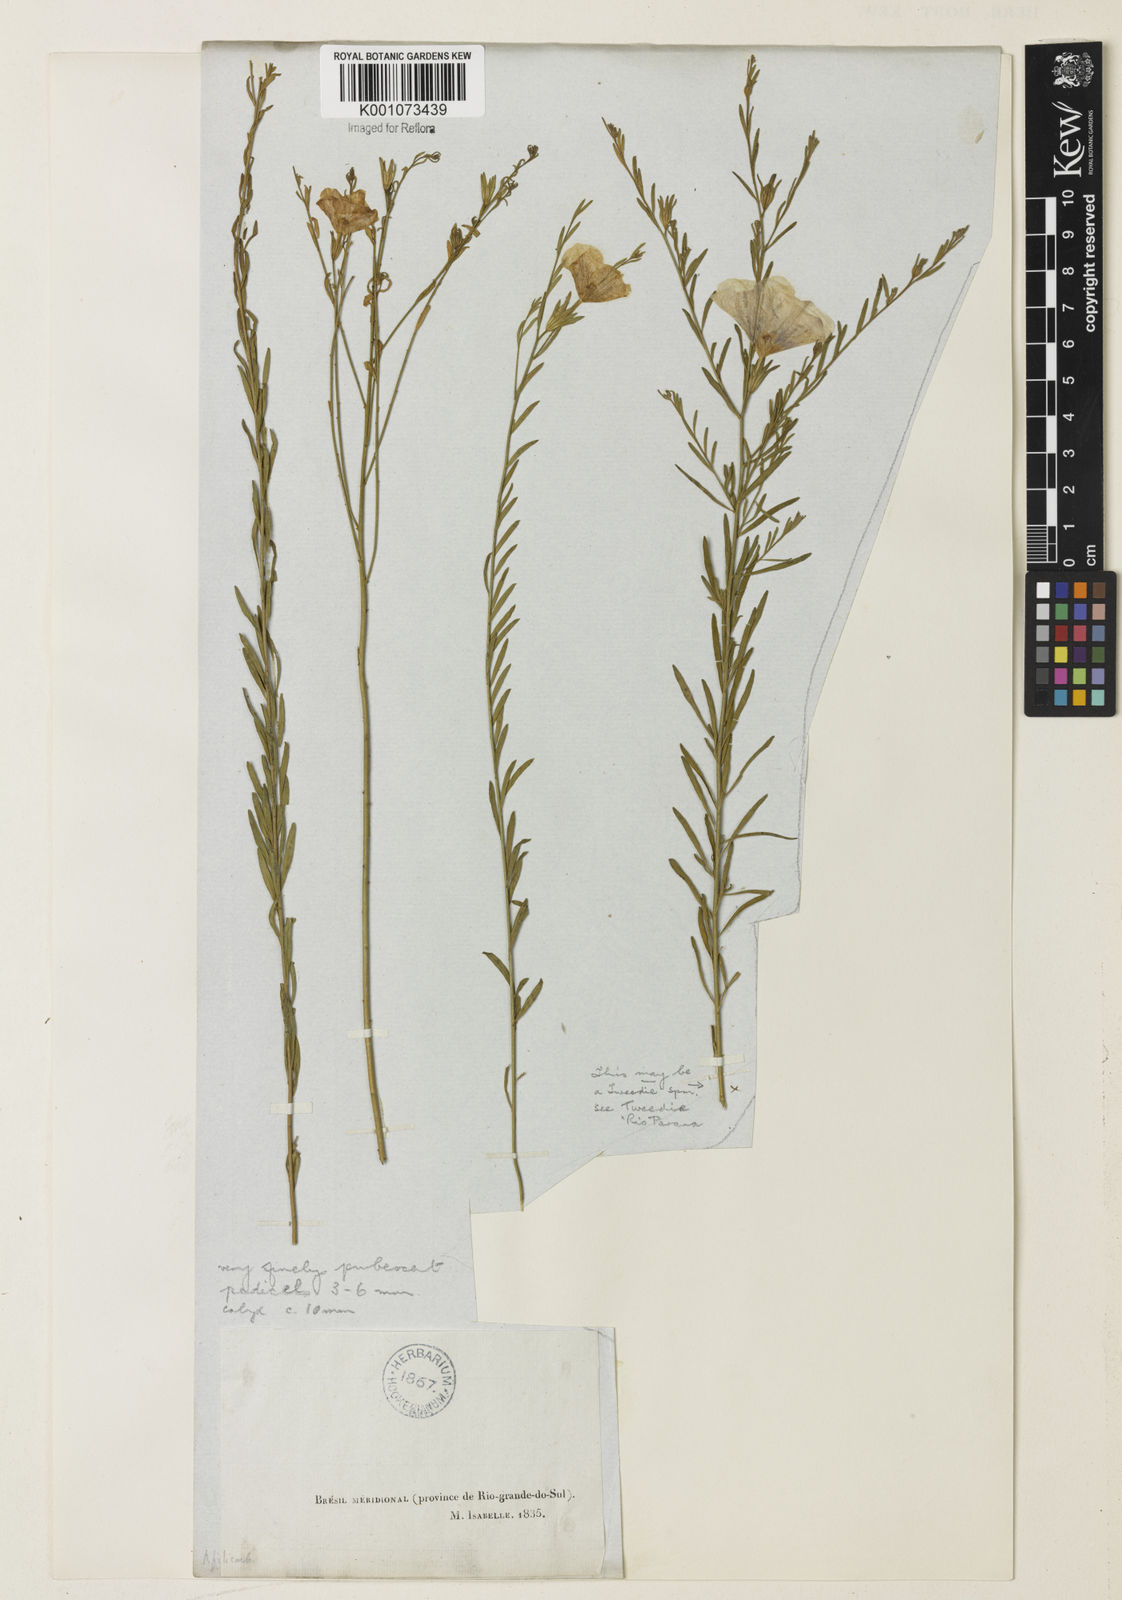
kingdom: Plantae
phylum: Tracheophyta
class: Magnoliopsida
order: Solanales
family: Solanaceae
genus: Nierembergia
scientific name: Nierembergia scoparia
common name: Broom cupflower
